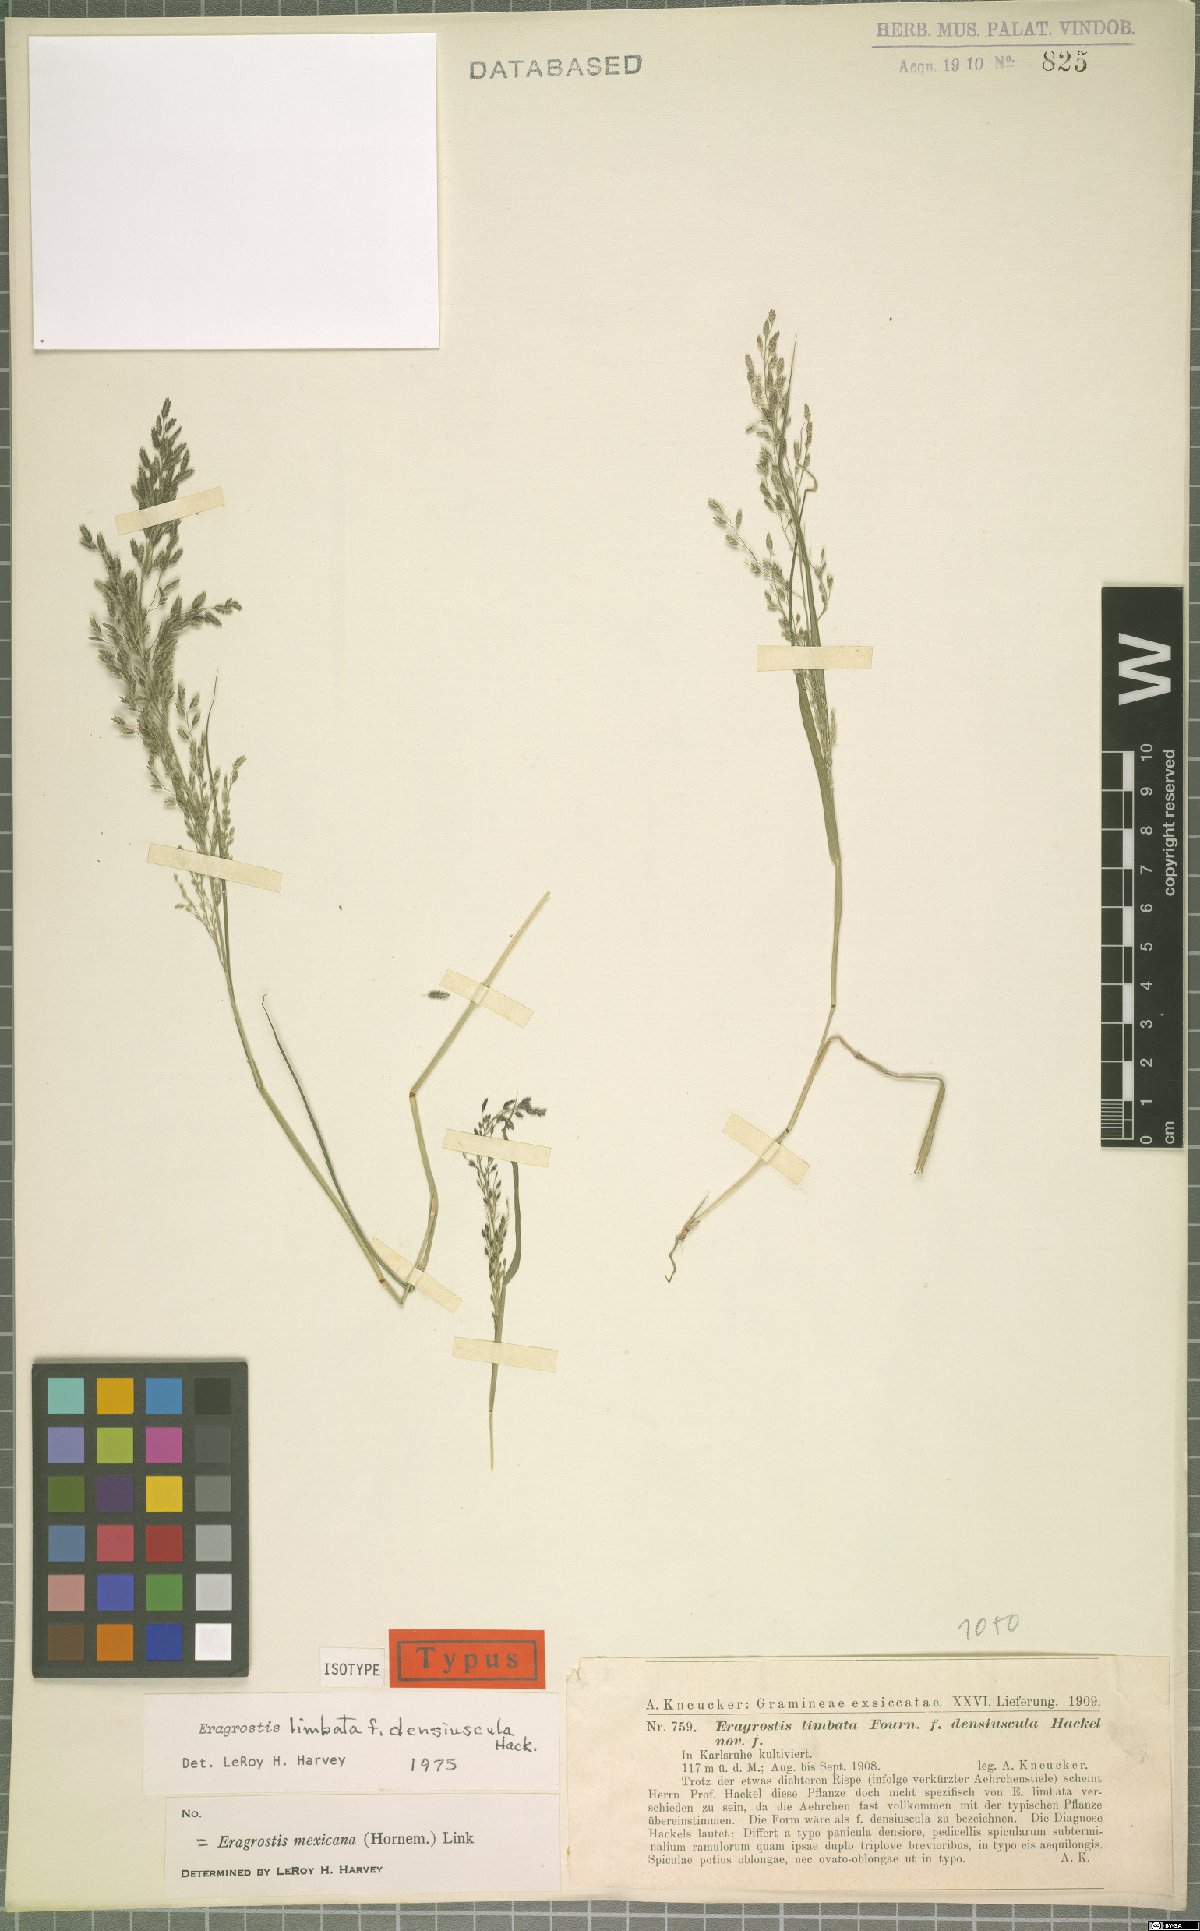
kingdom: Plantae
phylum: Tracheophyta
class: Liliopsida
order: Poales
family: Poaceae
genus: Eragrostis
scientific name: Eragrostis mexicana
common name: Mexican love grass
